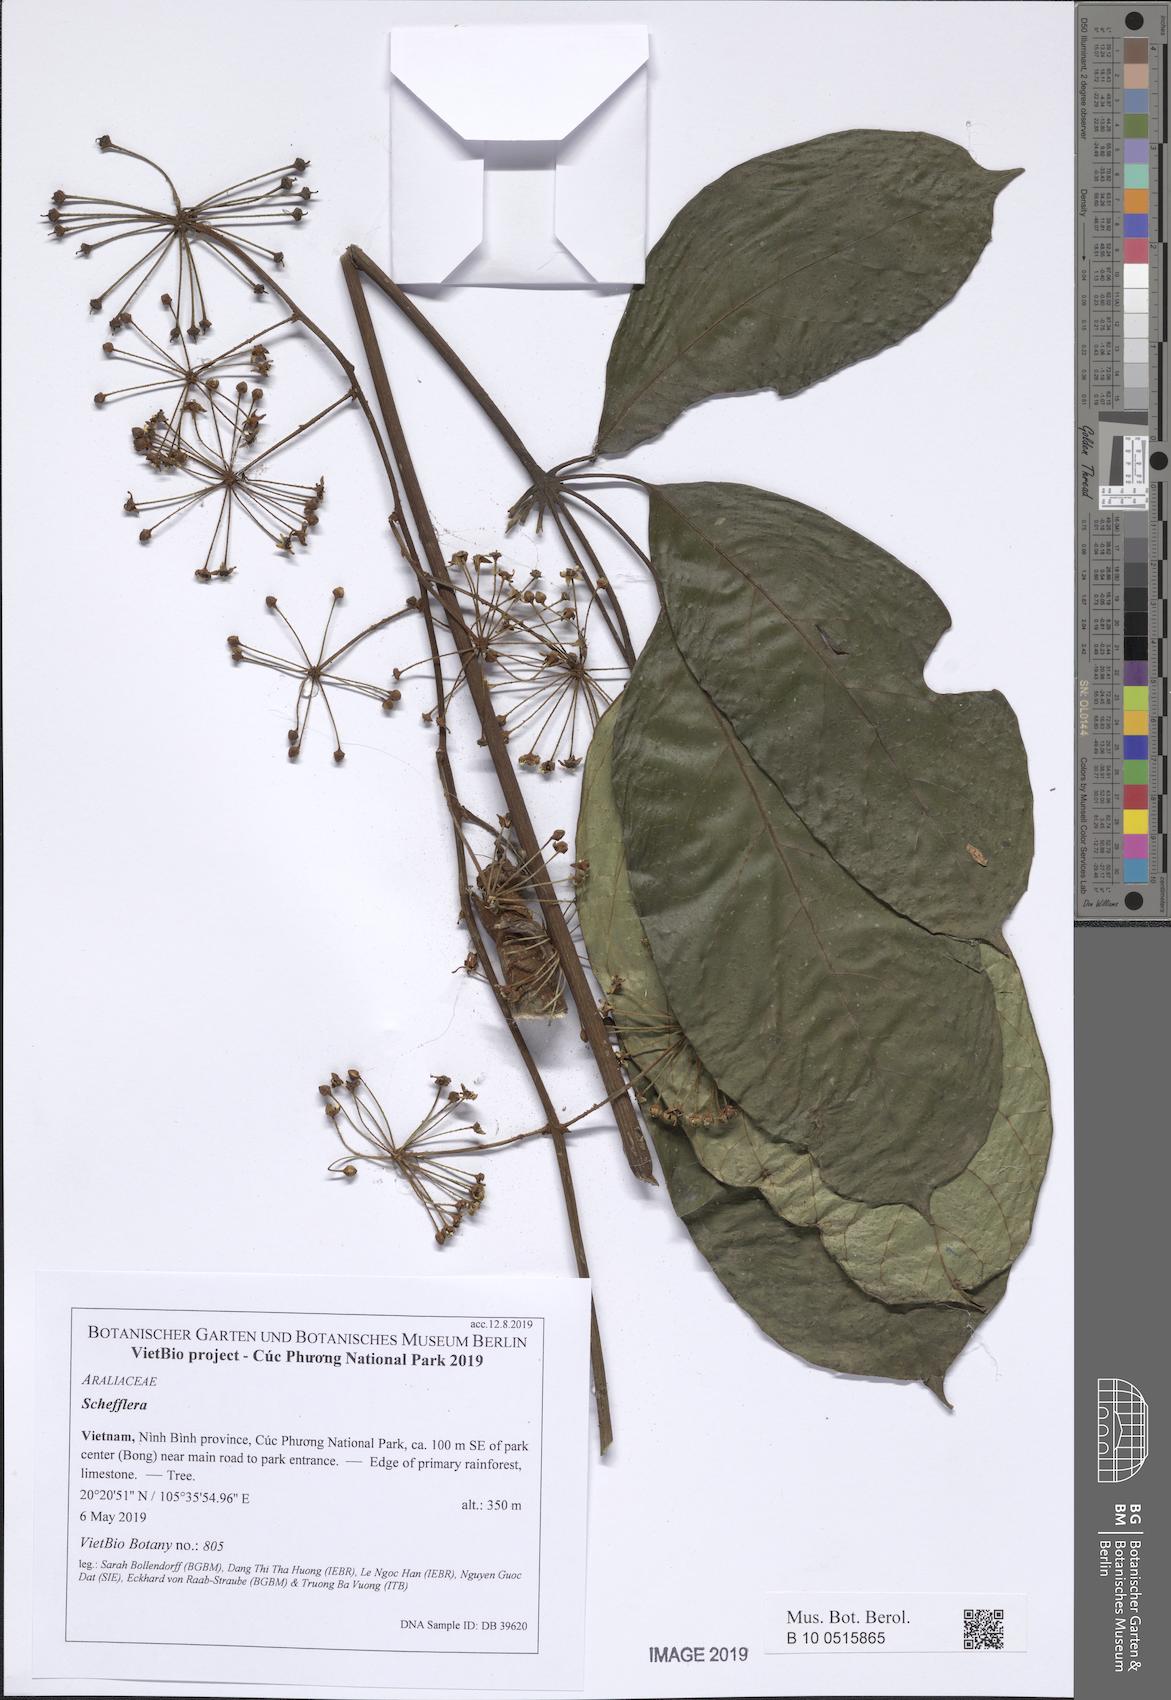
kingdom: Plantae
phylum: Tracheophyta
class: Magnoliopsida
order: Apiales
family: Araliaceae
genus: Schefflera
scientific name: Schefflera
